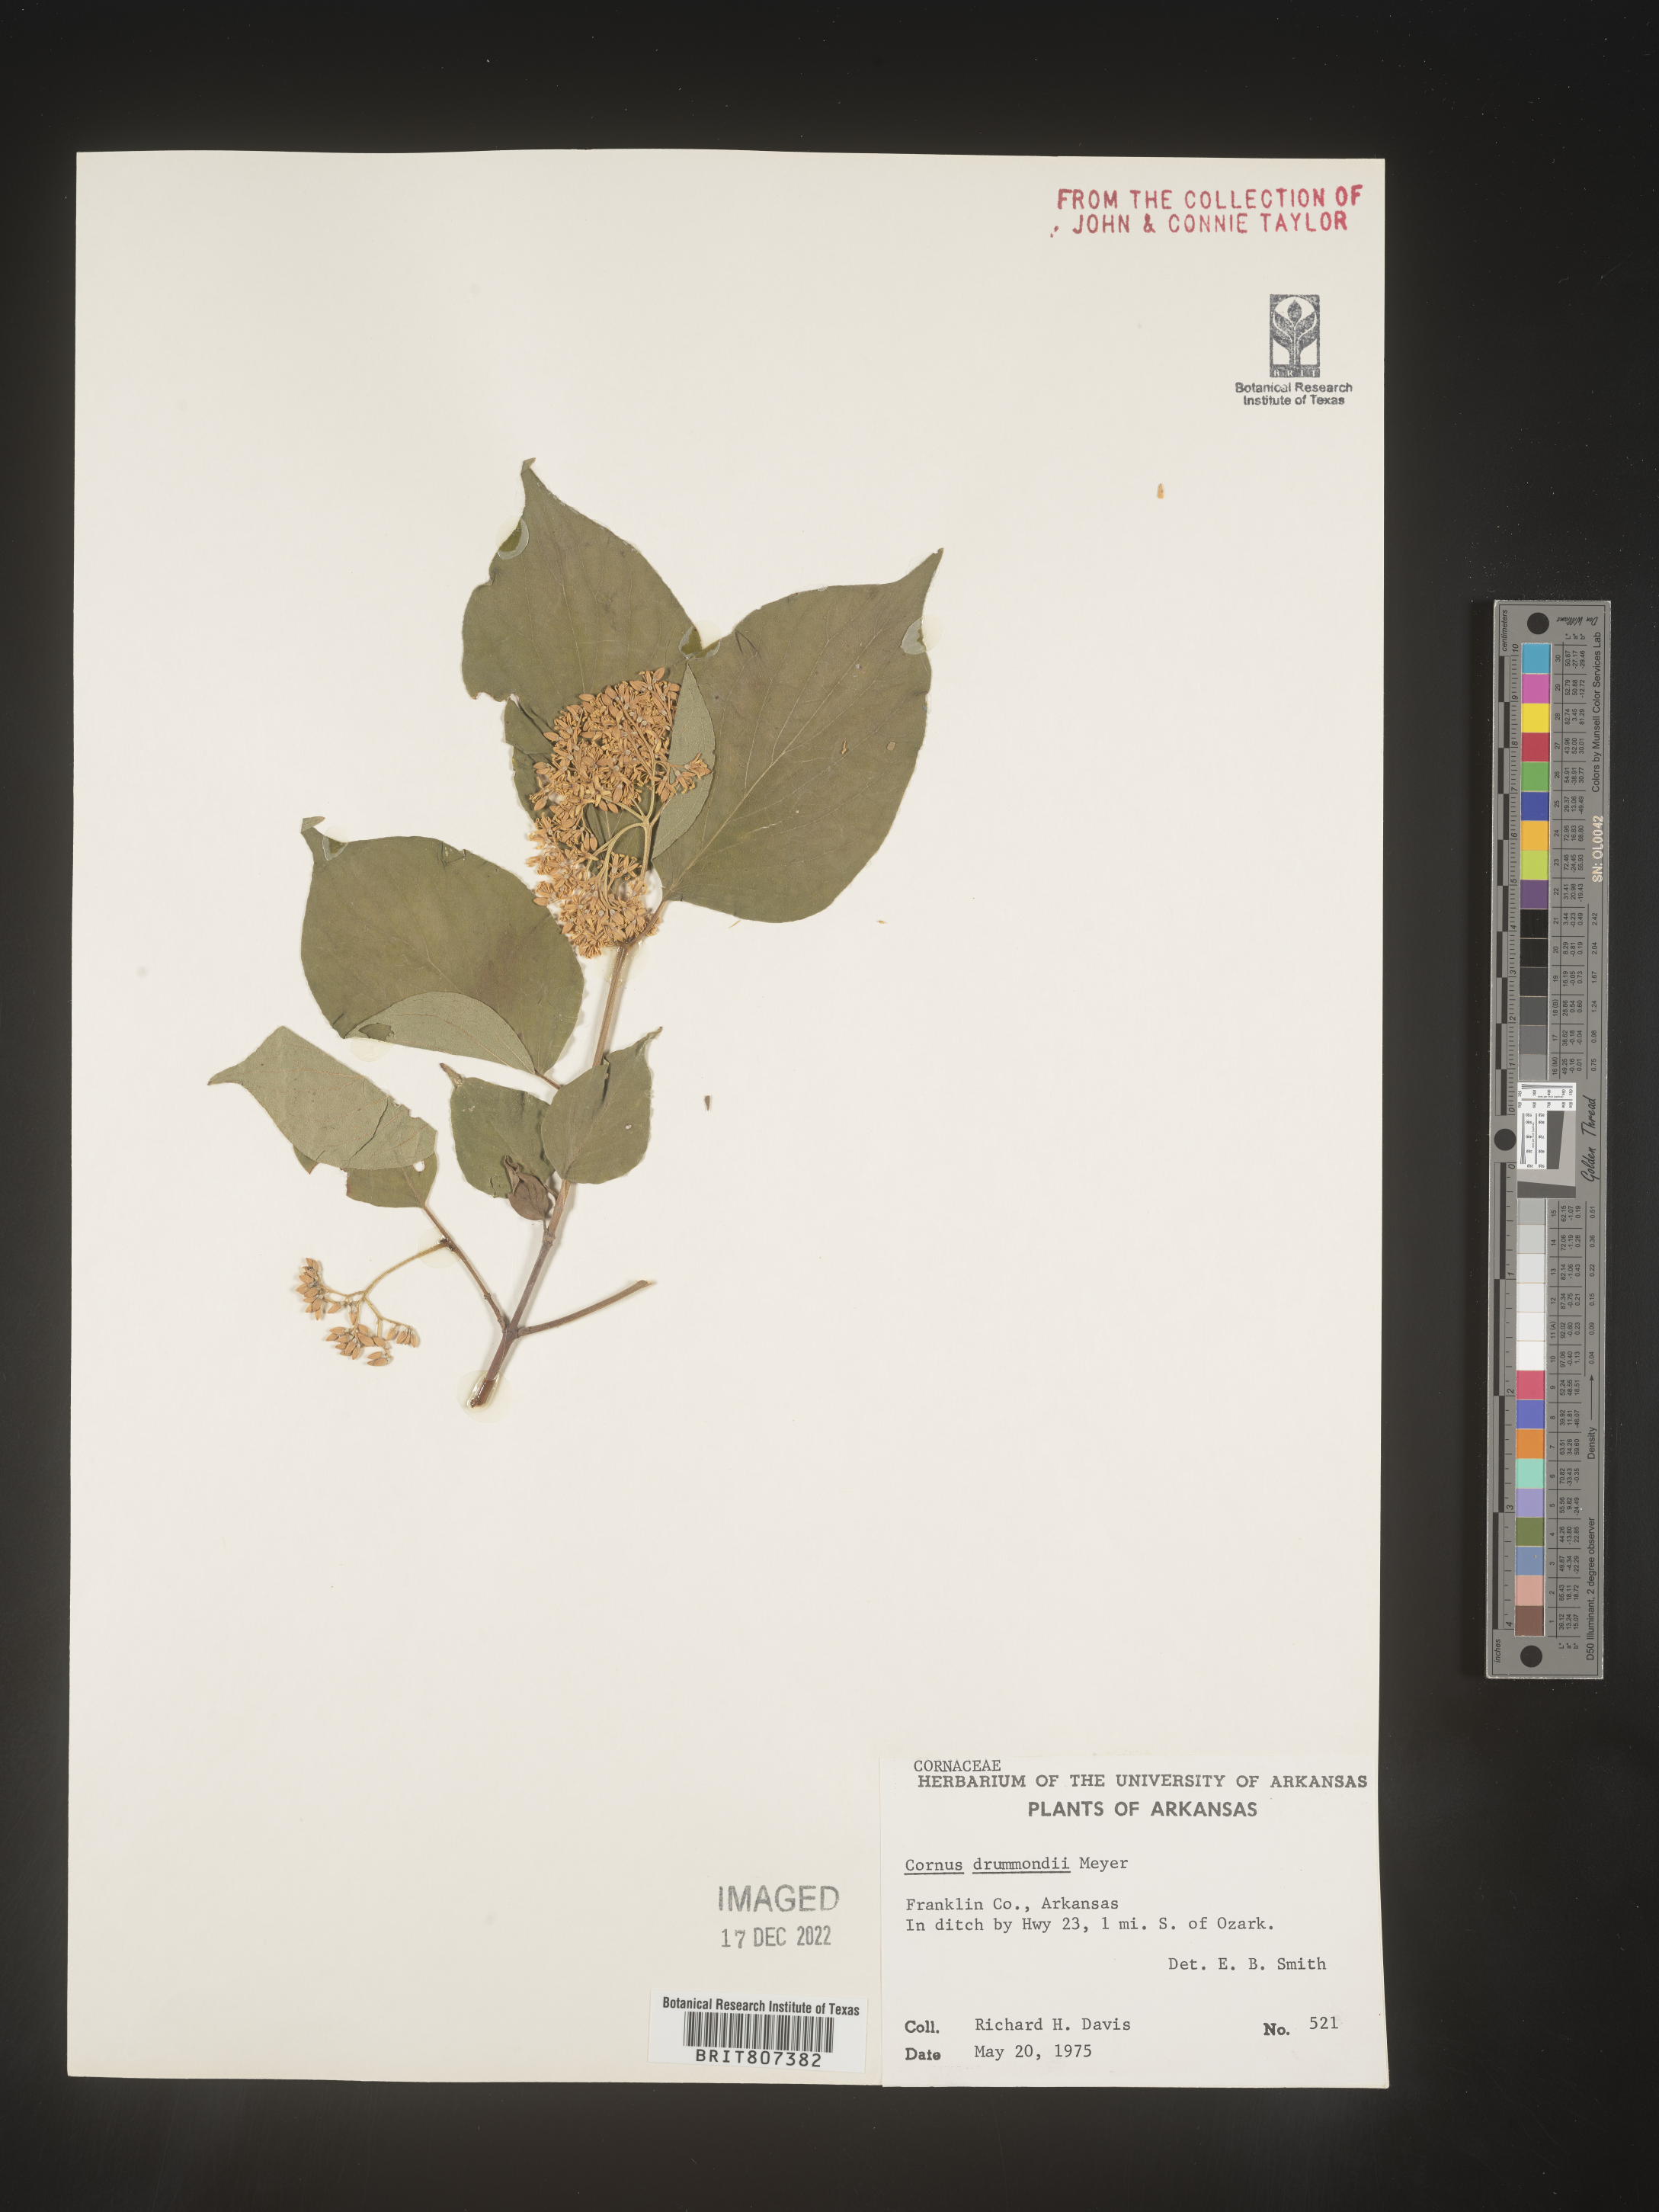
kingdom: Plantae
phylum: Tracheophyta
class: Magnoliopsida
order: Cornales
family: Cornaceae
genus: Cornus
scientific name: Cornus drummondii
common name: Rough-leaf dogwood
